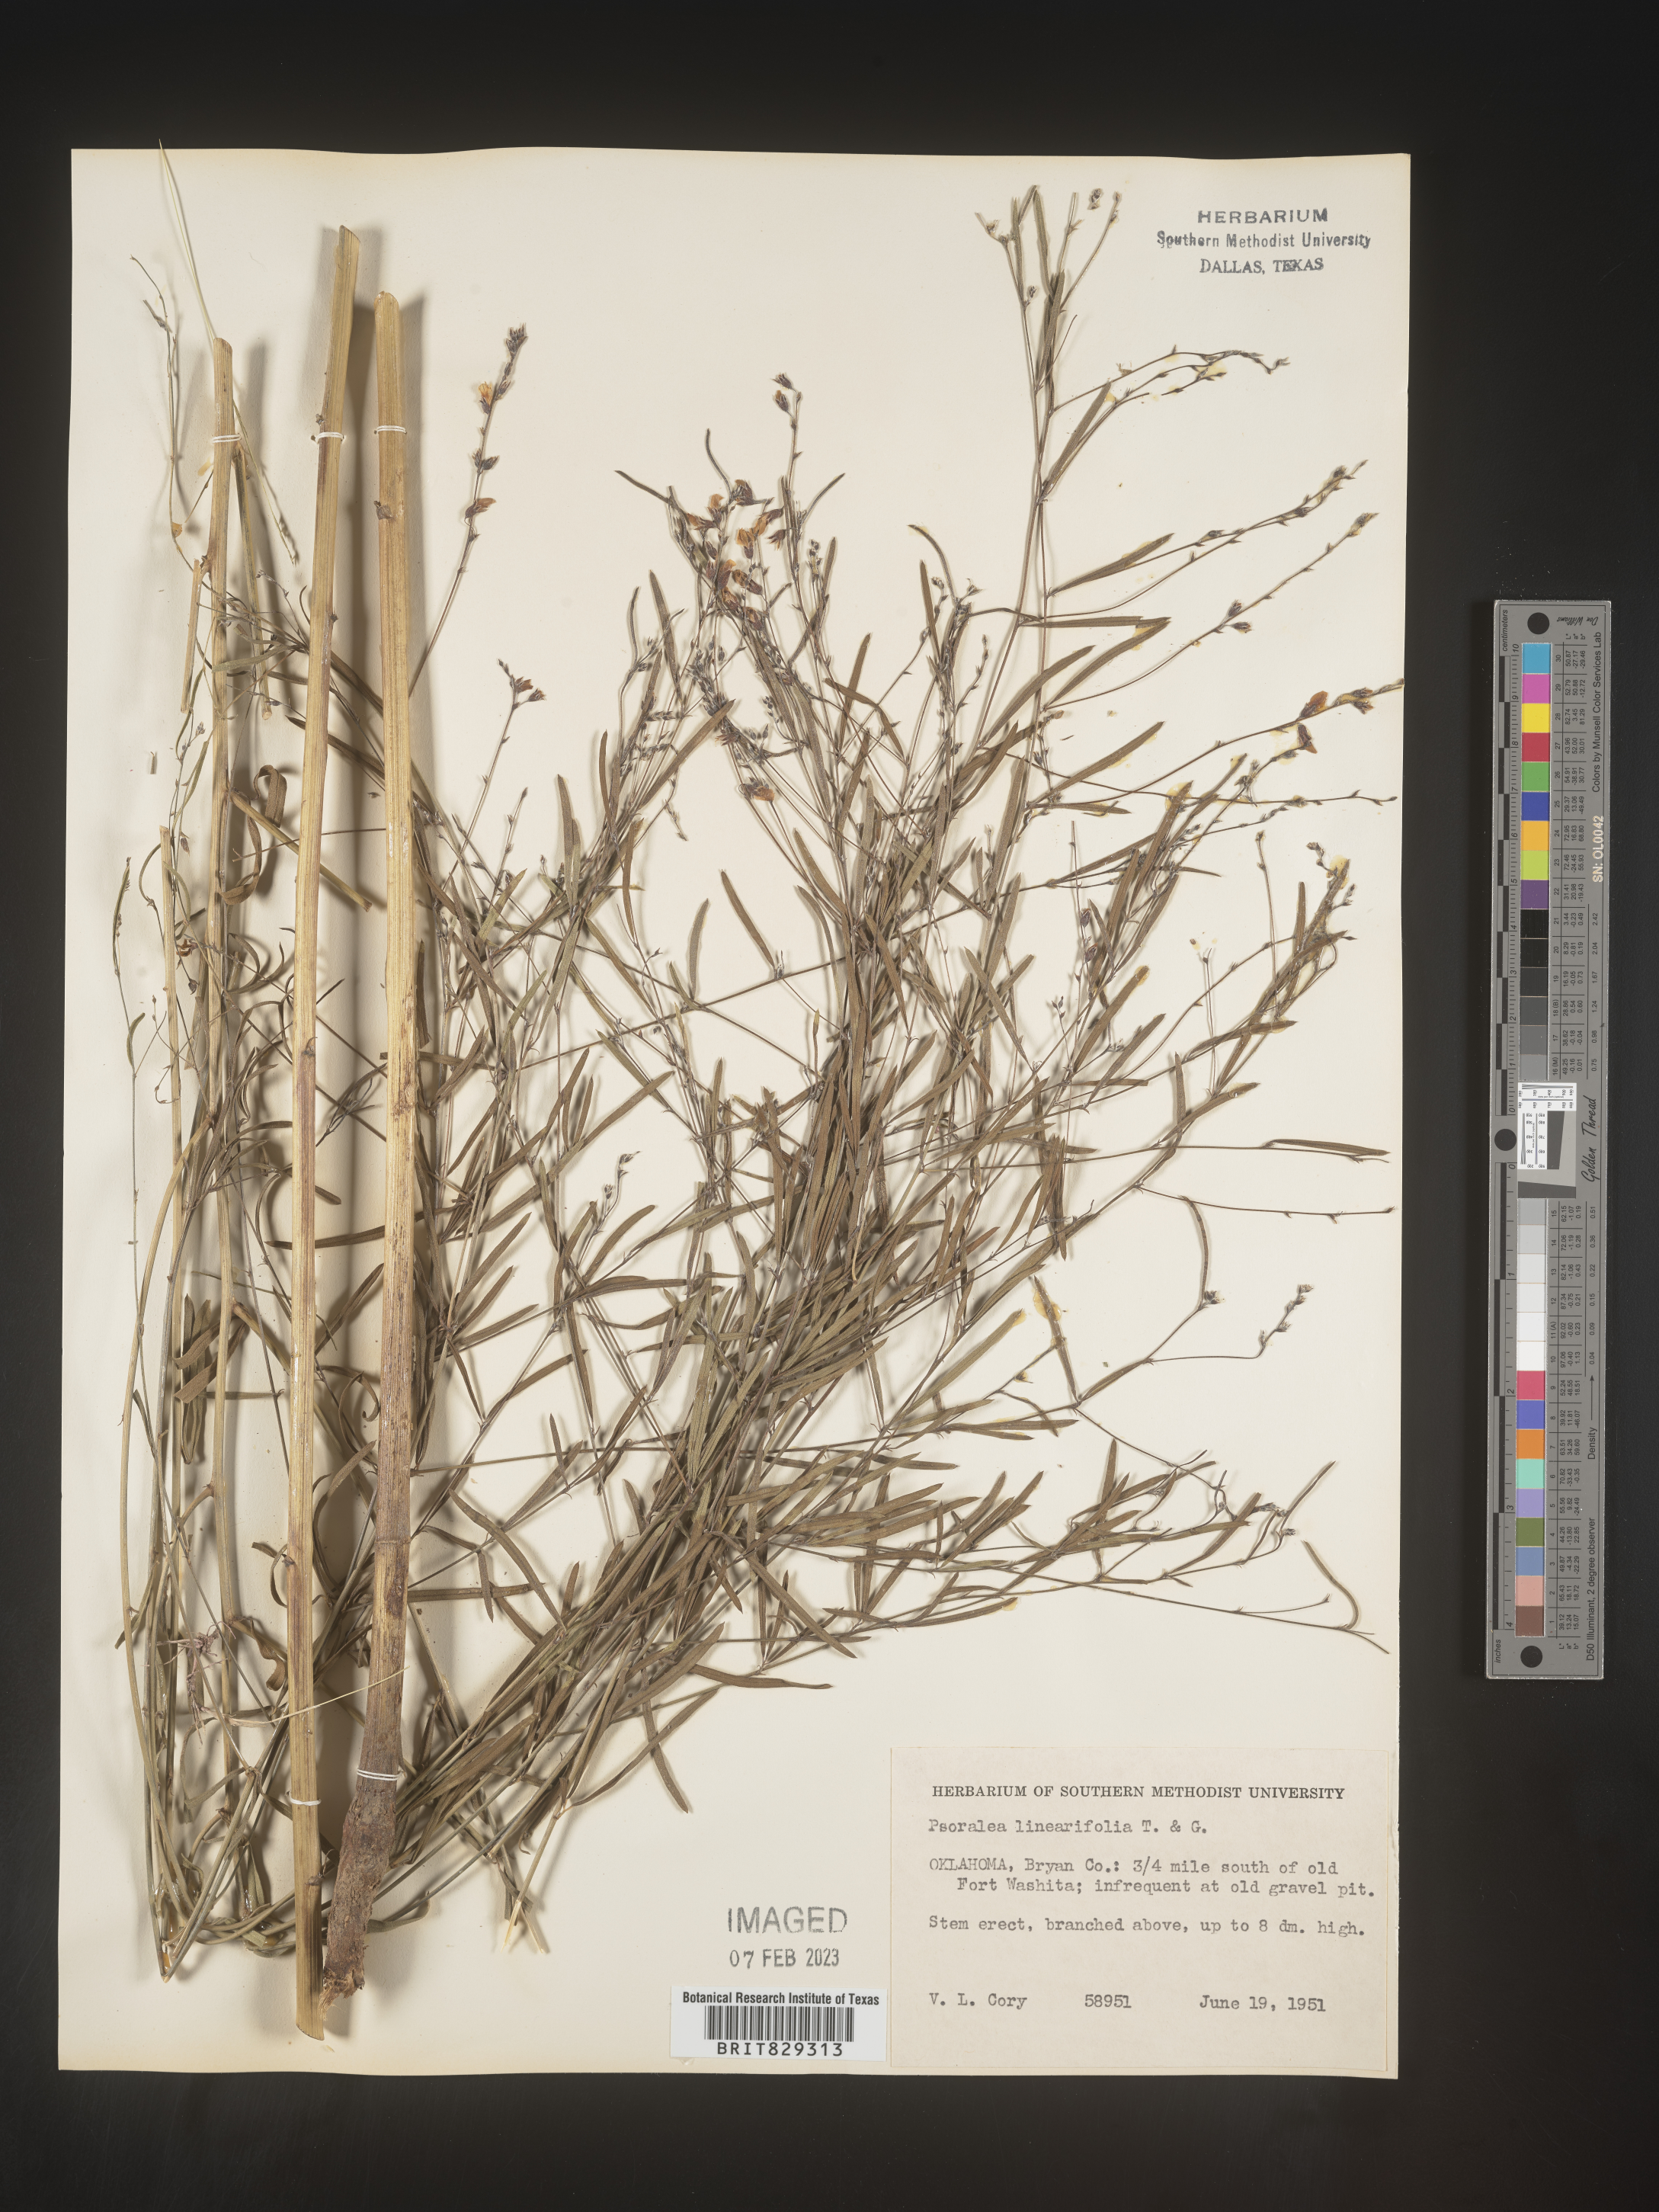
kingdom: Plantae
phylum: Tracheophyta
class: Magnoliopsida
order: Fabales
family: Fabaceae
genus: Pediomelum
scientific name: Pediomelum linearifolium
